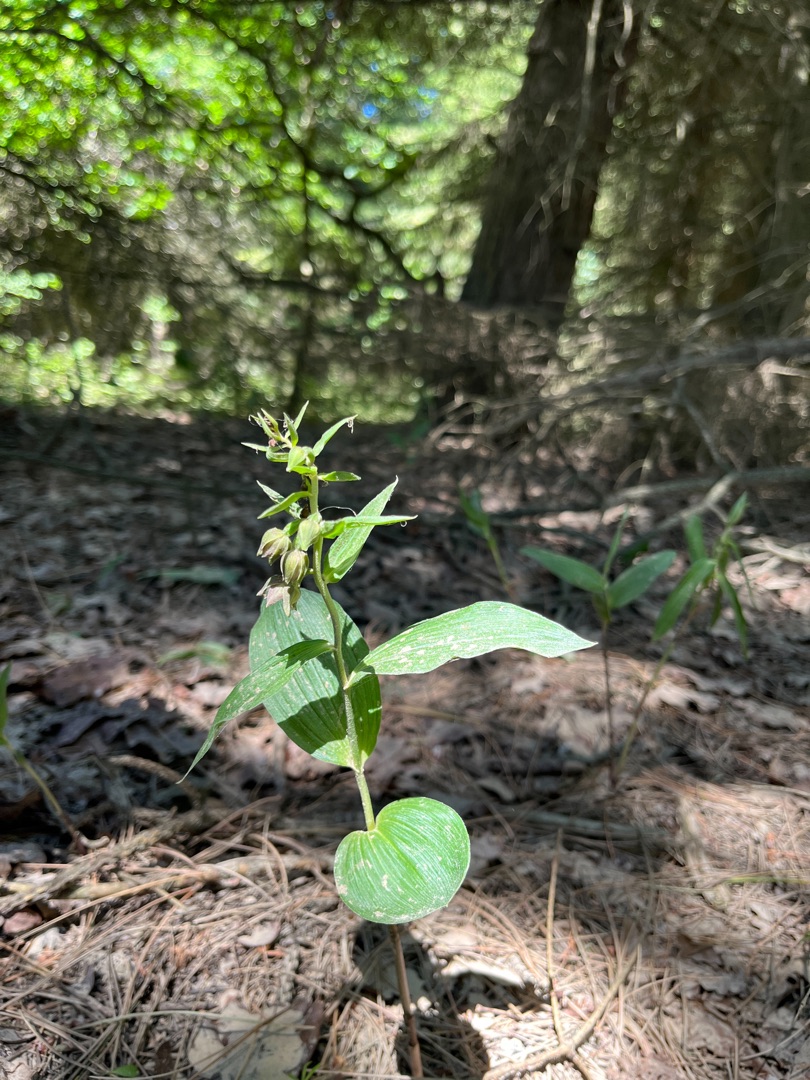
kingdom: Plantae
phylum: Tracheophyta
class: Liliopsida
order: Asparagales
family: Orchidaceae
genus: Epipactis
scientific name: Epipactis helleborine
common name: Skov-hullæbe
